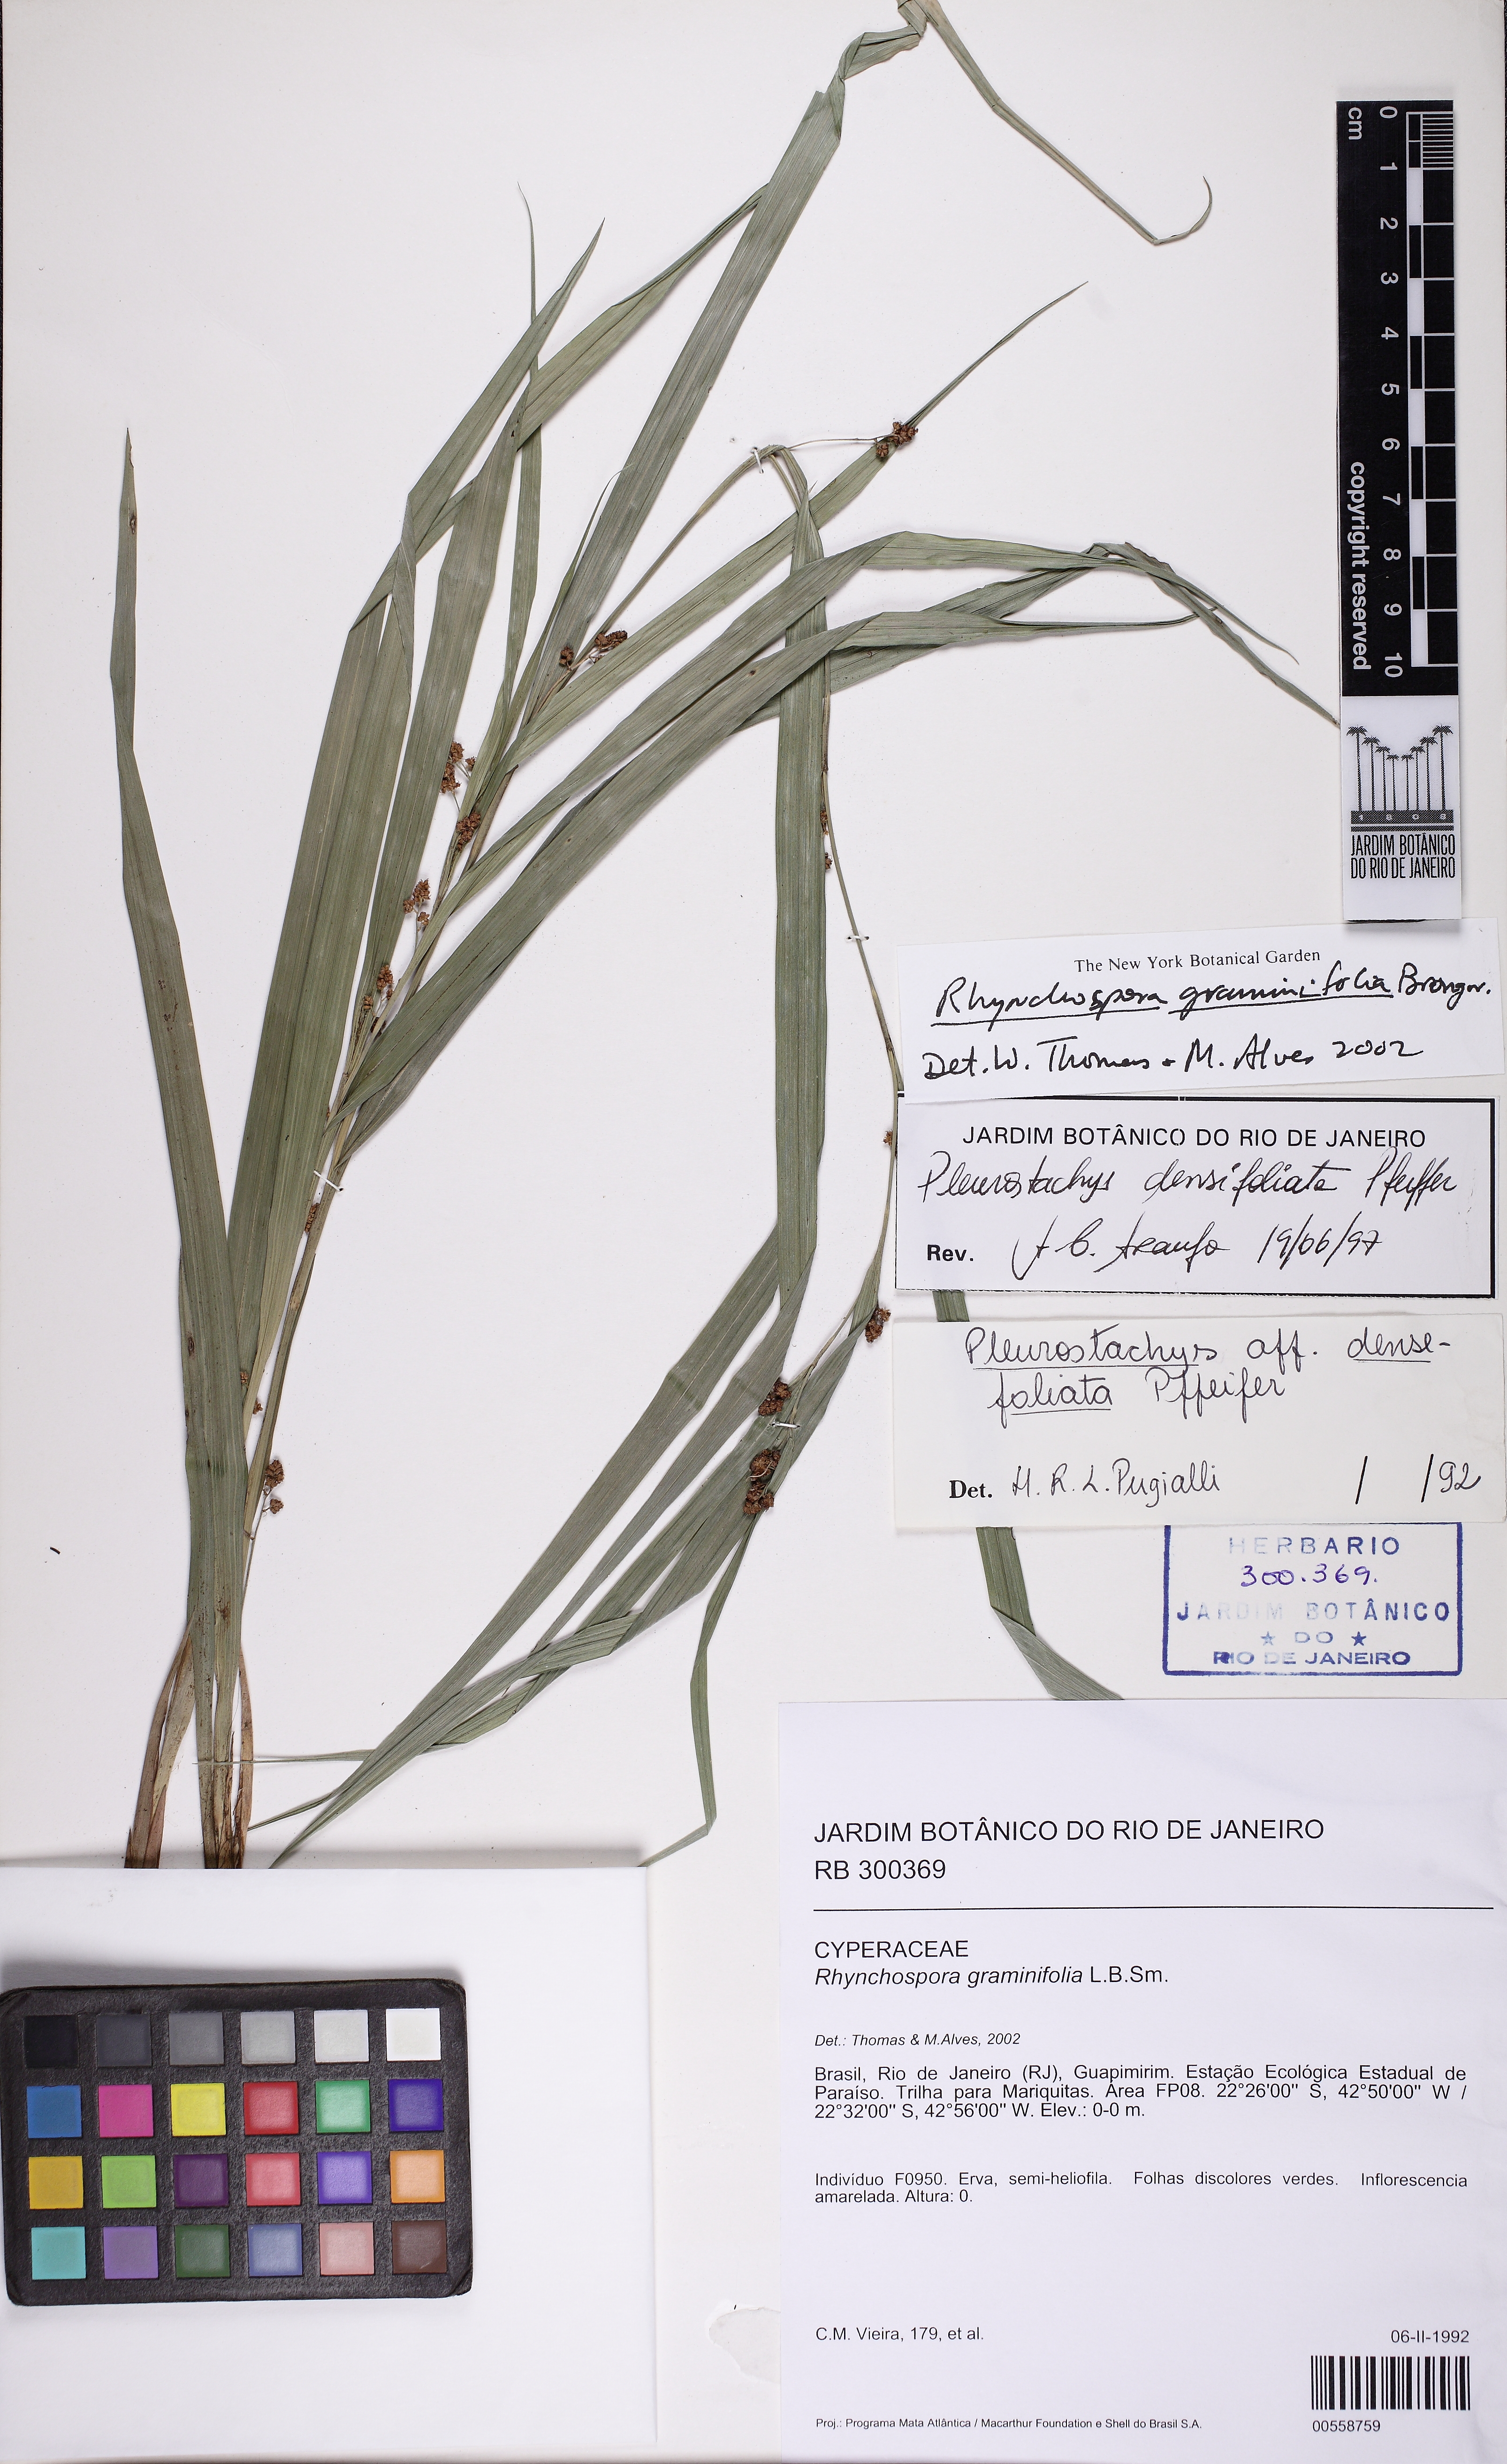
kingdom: Plantae
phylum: Tracheophyta
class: Liliopsida
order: Poales
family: Cyperaceae
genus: Rhynchospora
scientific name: Rhynchospora pilulifera
